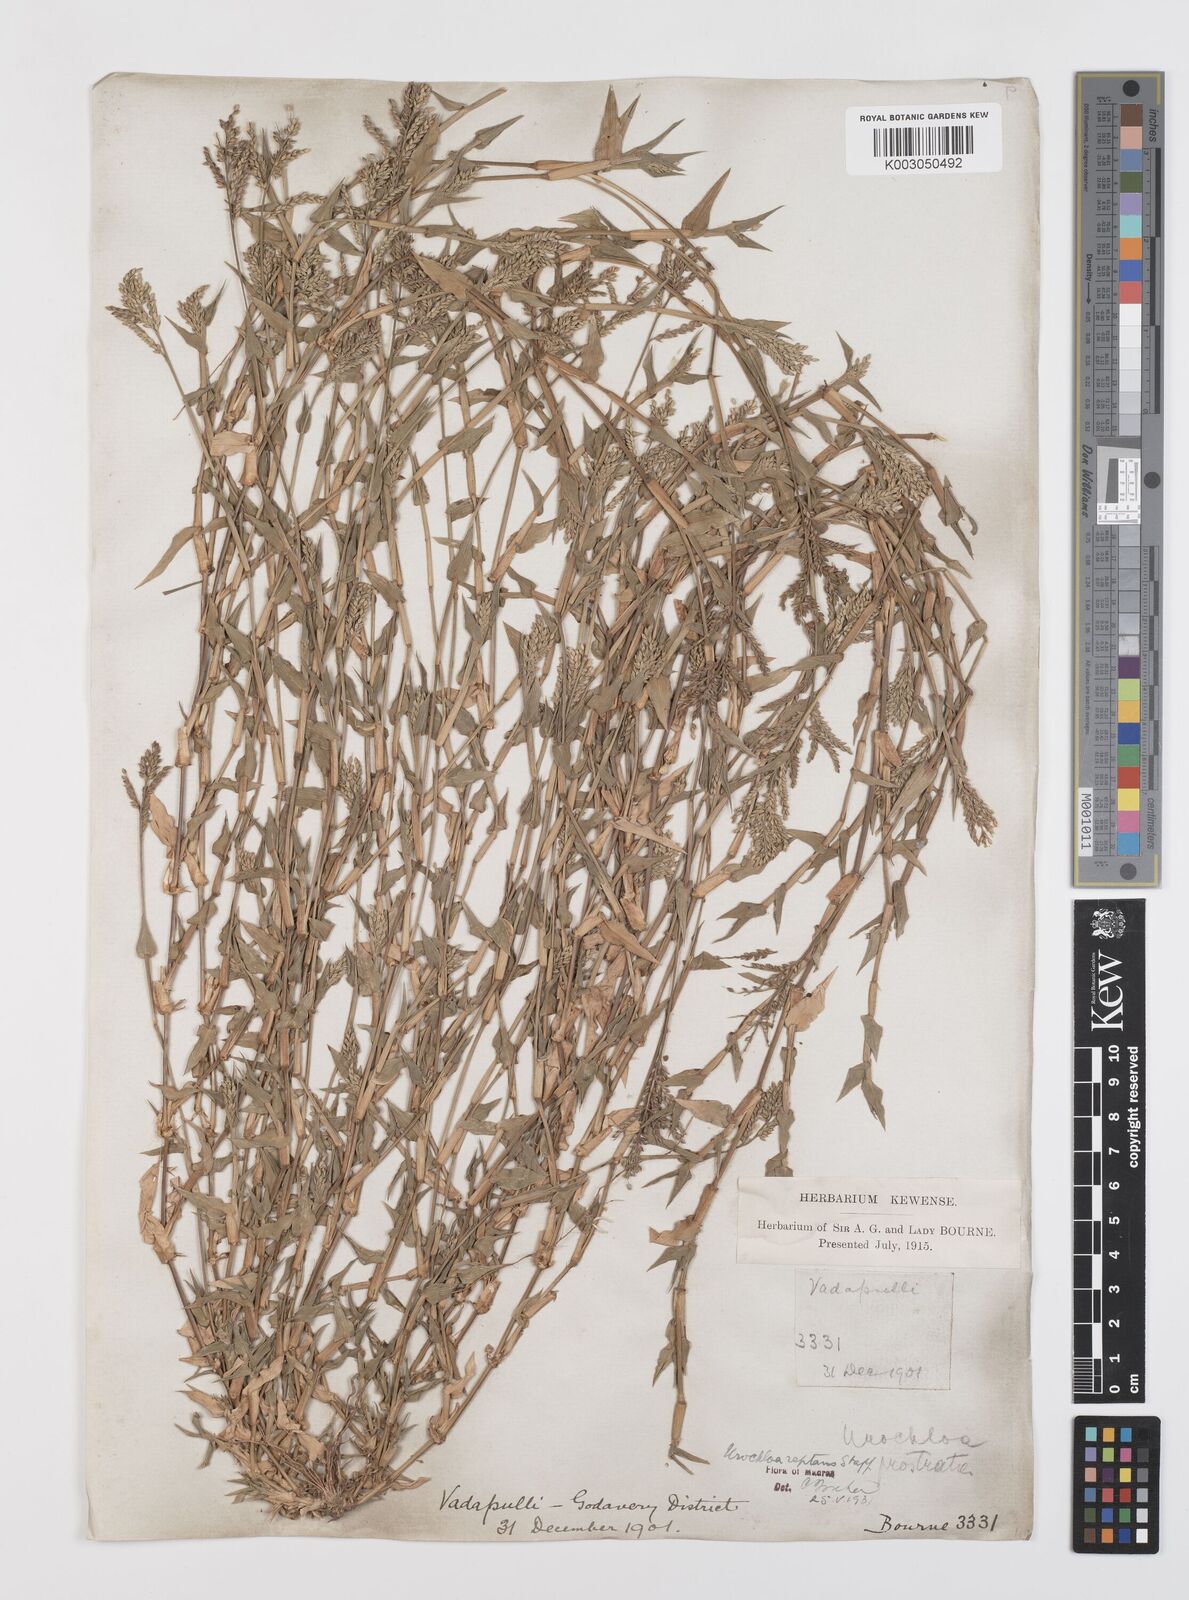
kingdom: Plantae
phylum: Tracheophyta
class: Liliopsida
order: Poales
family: Poaceae
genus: Urochloa
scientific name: Urochloa reptans
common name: Sprawling signalgrass
